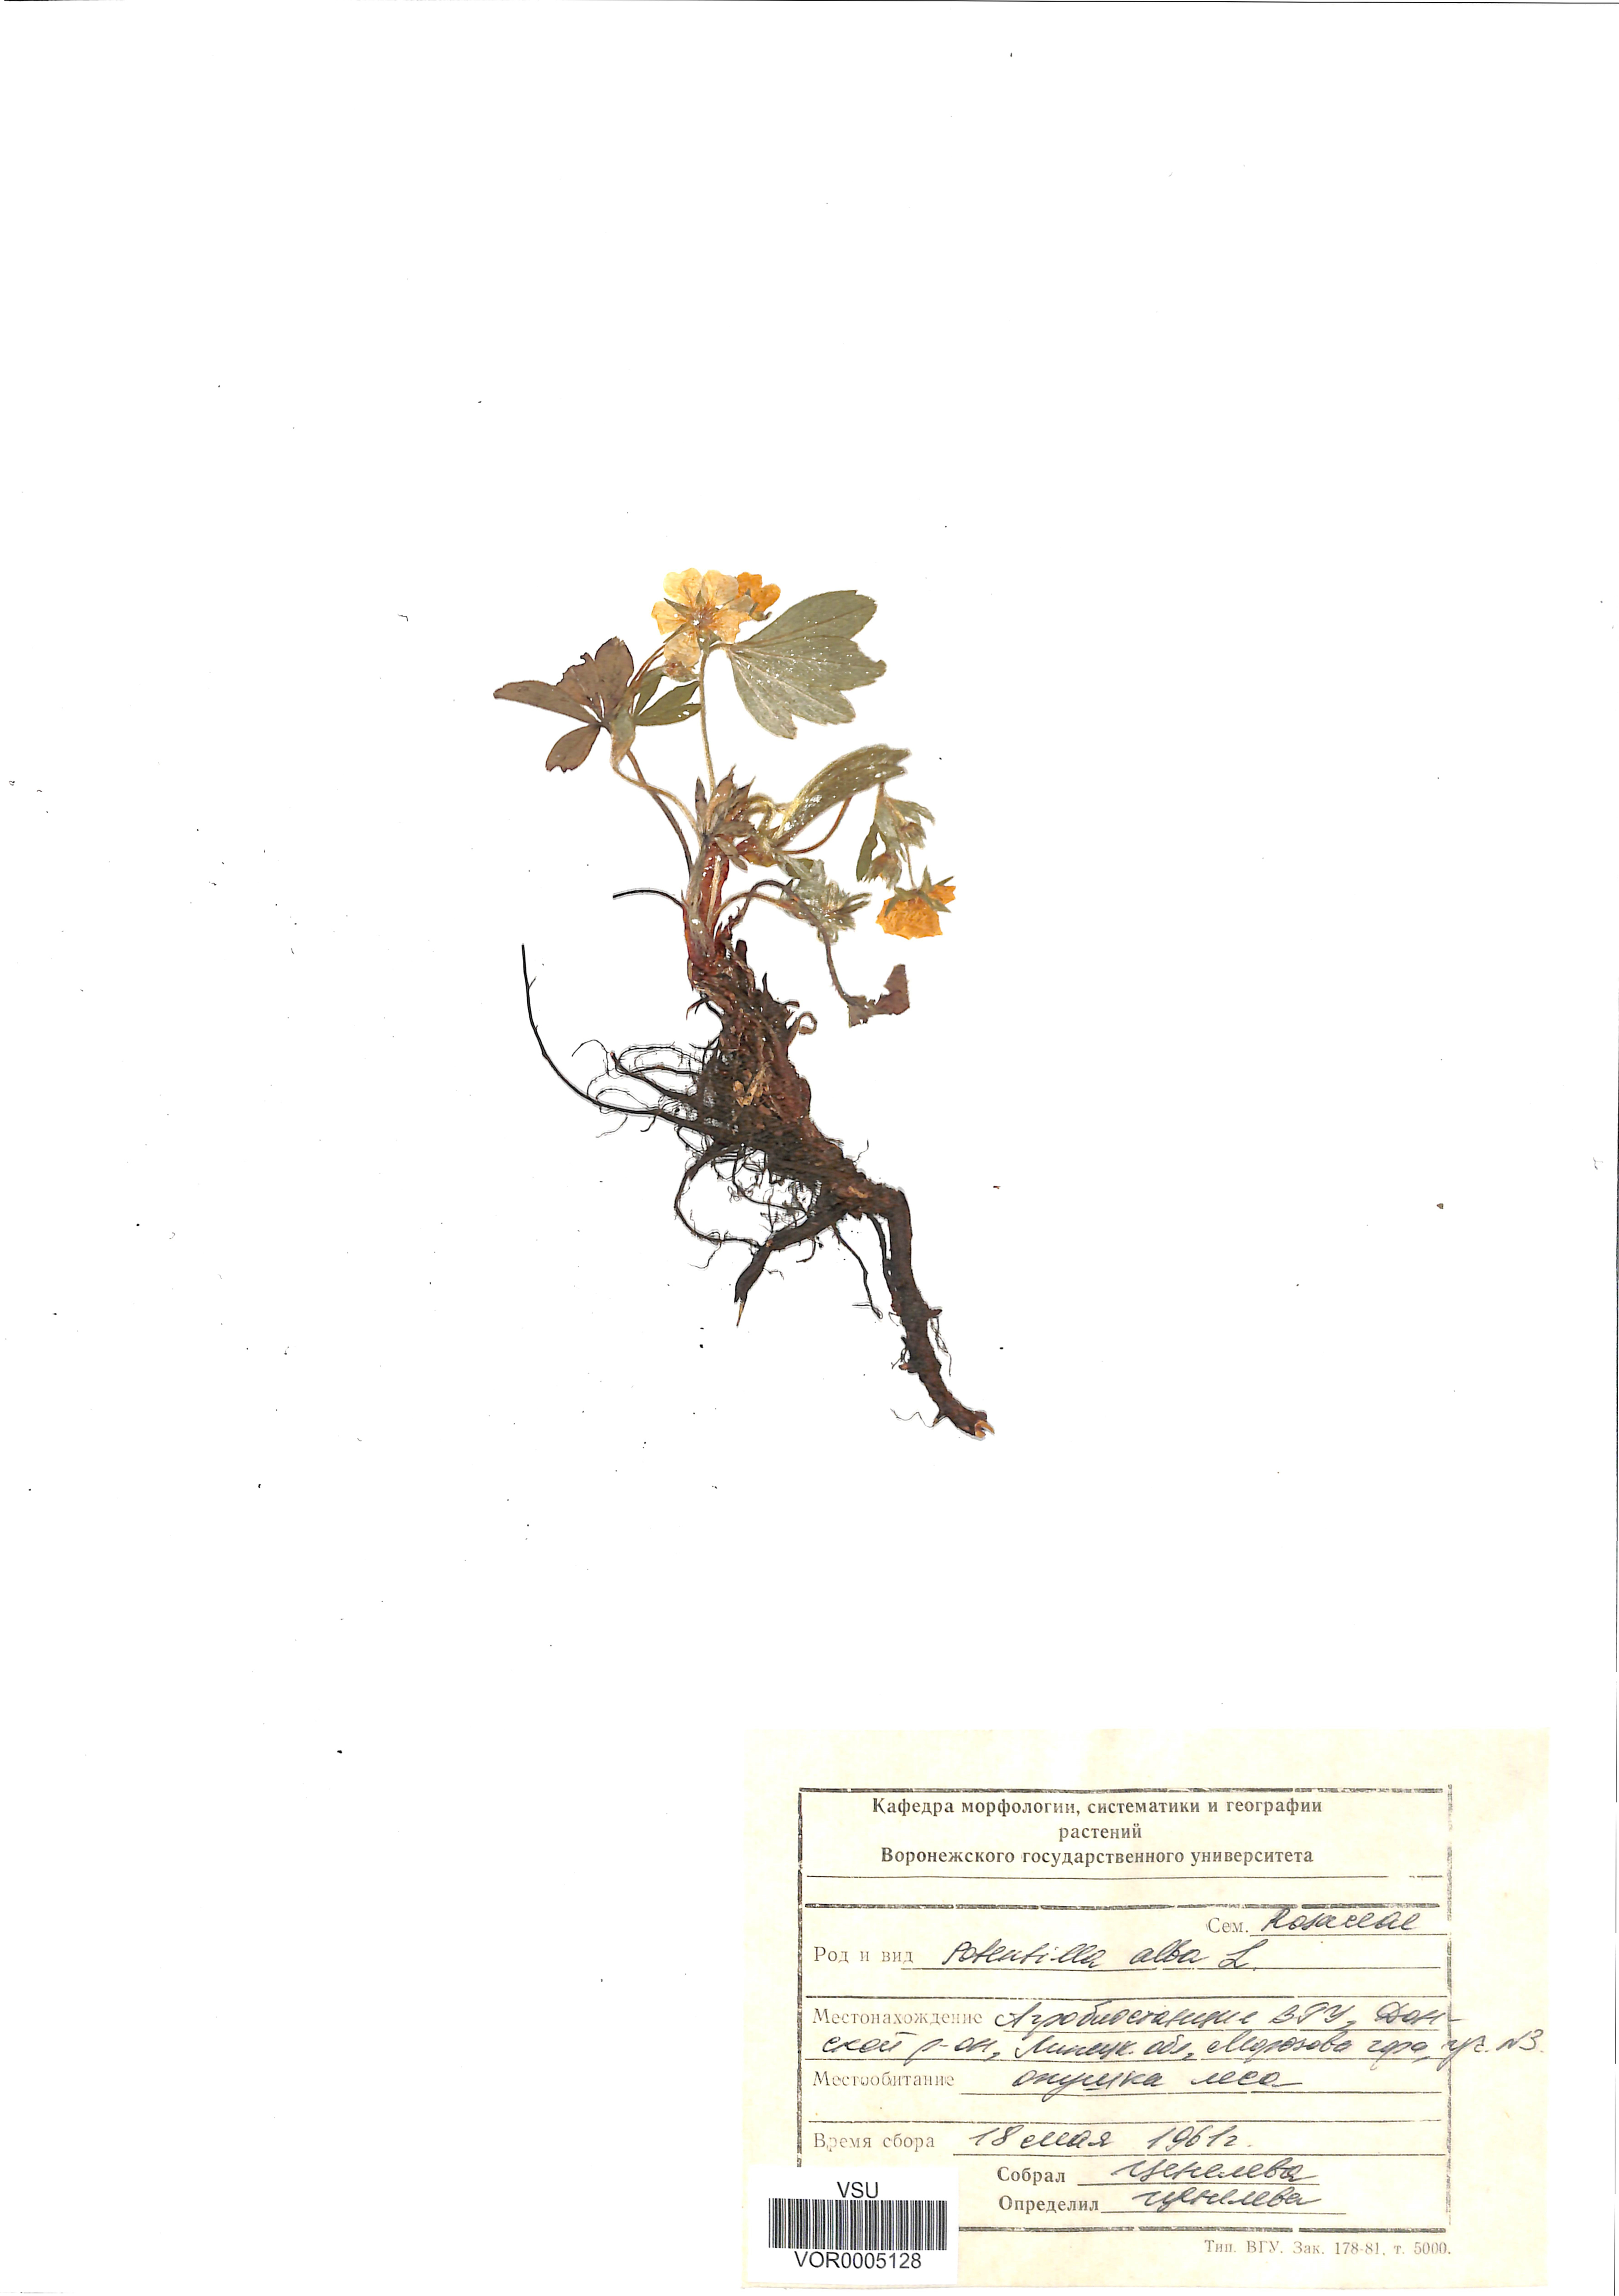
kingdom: Plantae
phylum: Tracheophyta
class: Magnoliopsida
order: Rosales
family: Rosaceae
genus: Potentilla
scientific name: Potentilla alba
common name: White cinquefoil
